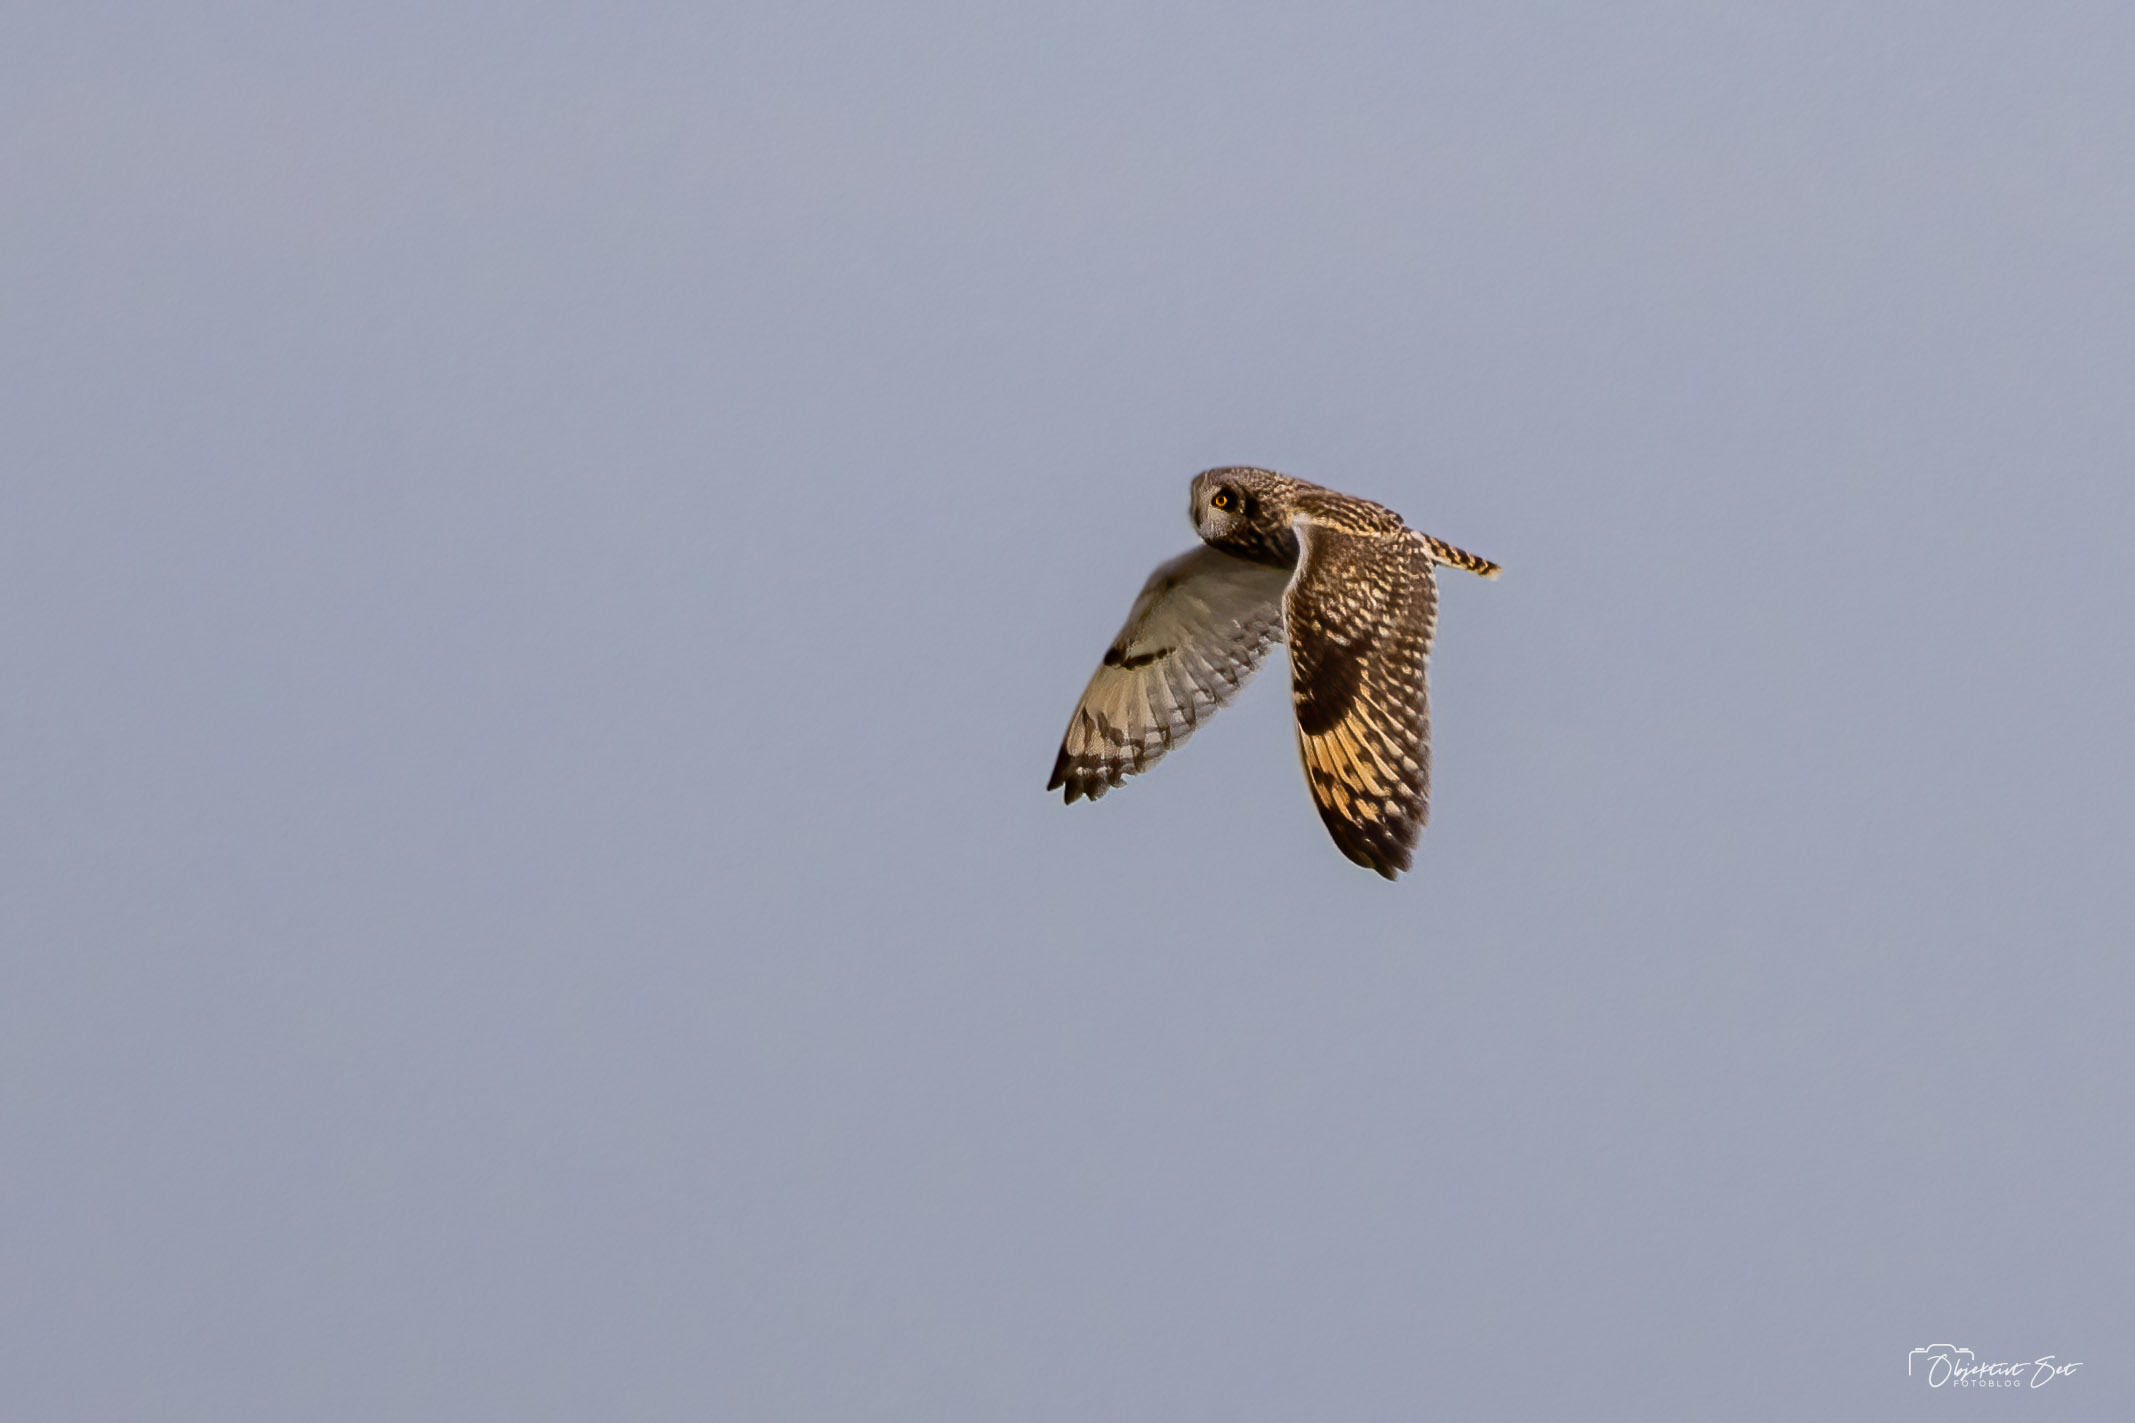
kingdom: Animalia
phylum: Chordata
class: Aves
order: Strigiformes
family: Strigidae
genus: Asio
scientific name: Asio flammeus
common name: Mosehornugle
